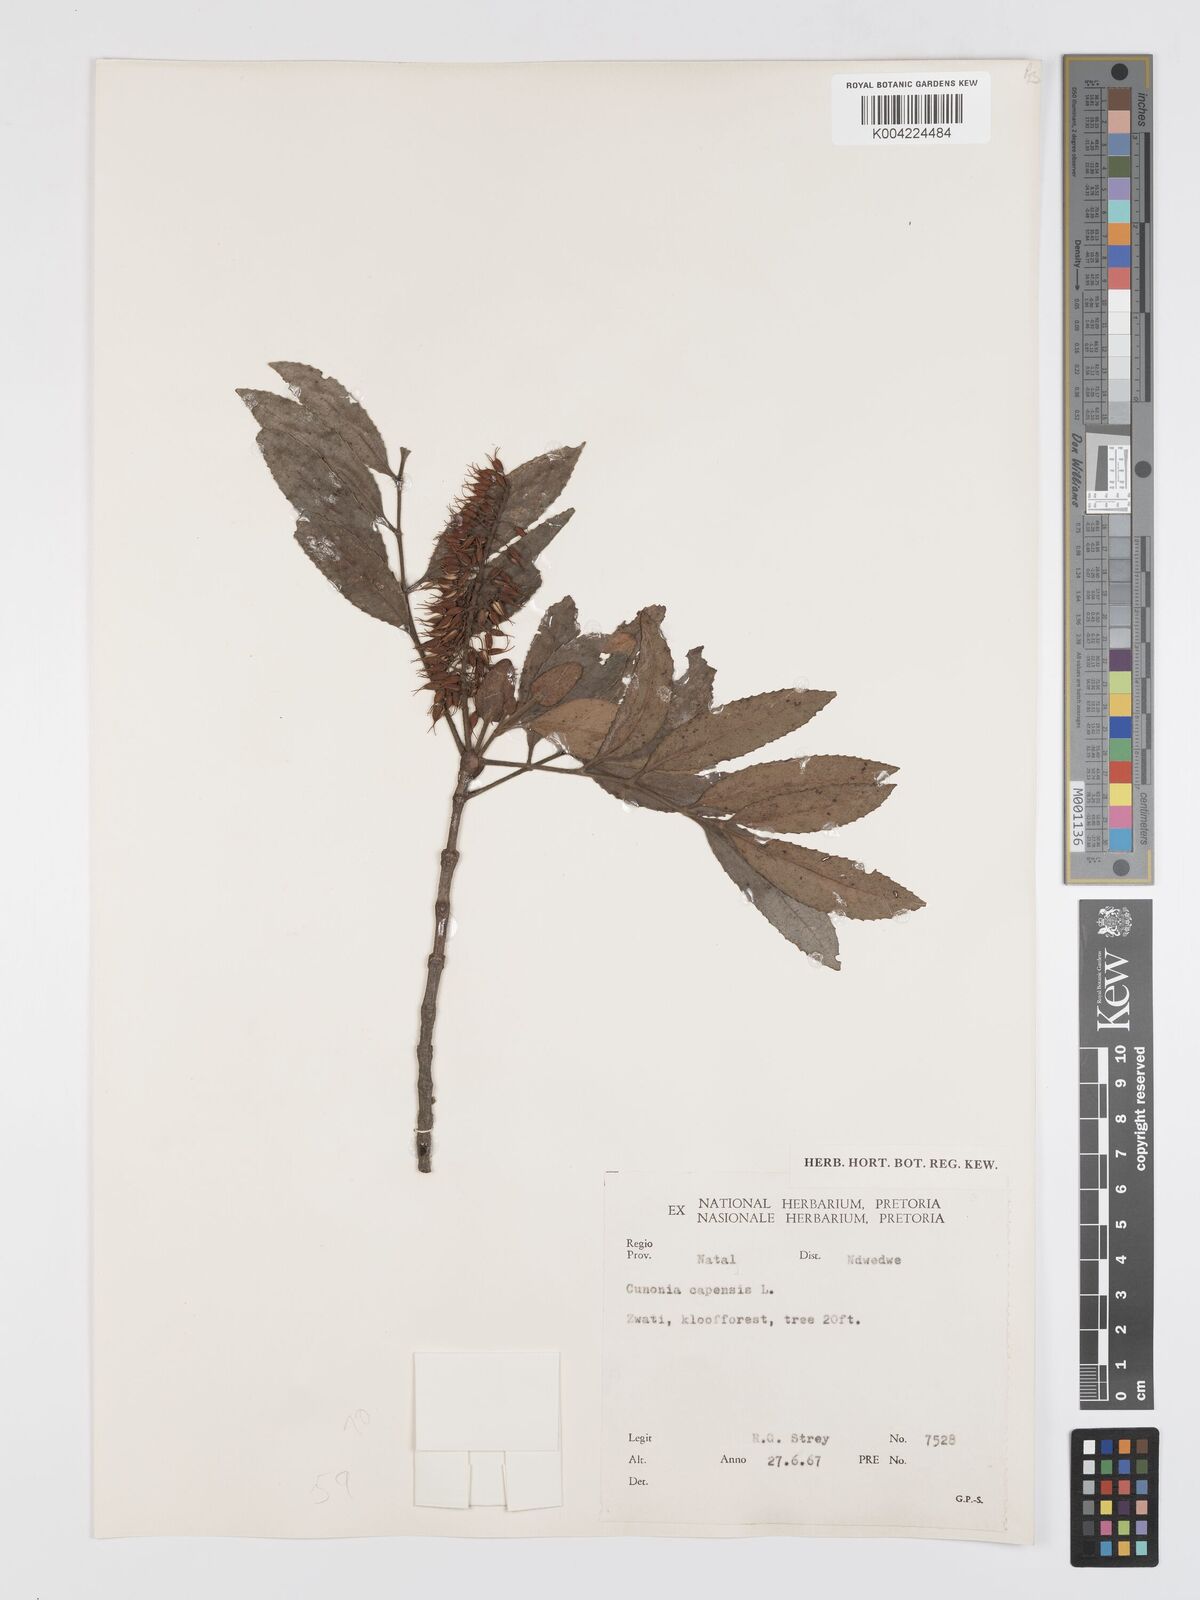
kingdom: Plantae
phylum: Tracheophyta
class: Magnoliopsida
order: Oxalidales
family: Cunoniaceae
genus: Cunonia
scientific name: Cunonia capensis
